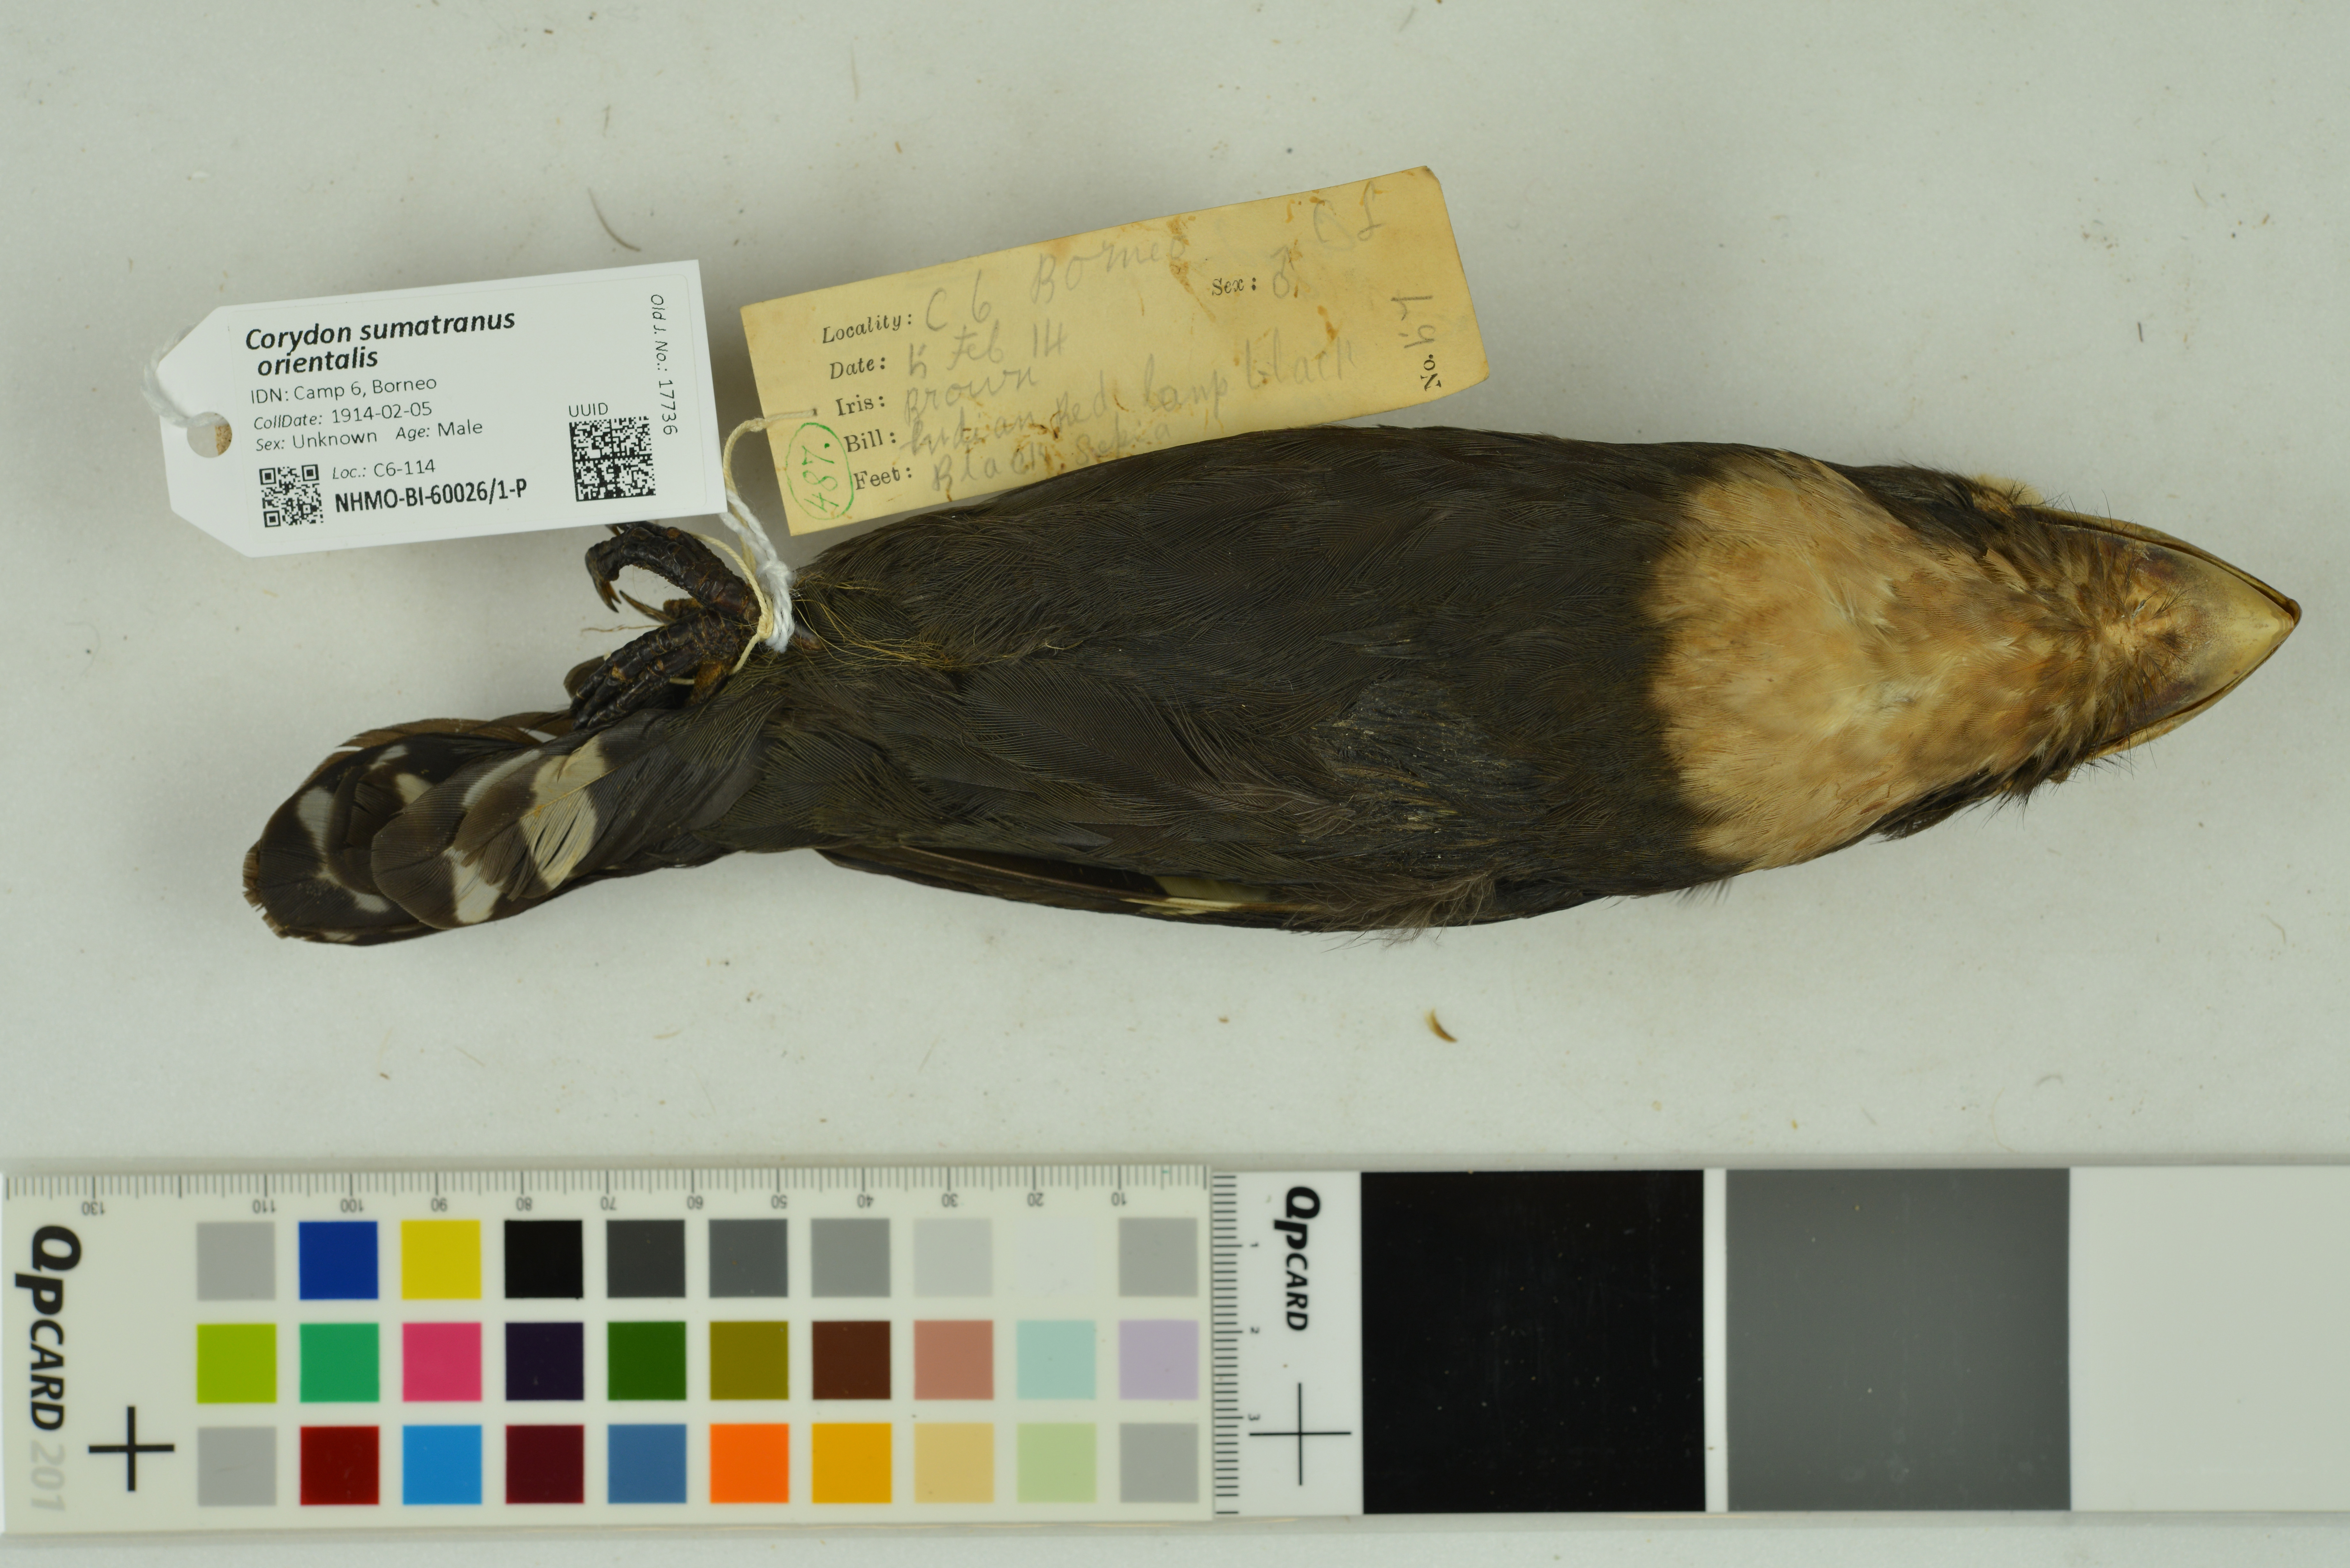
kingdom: Animalia
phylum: Chordata
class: Aves
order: Passeriformes
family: Eurylaimidae
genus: Corydon
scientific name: Corydon sumatranus
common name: Dusky broadbill
